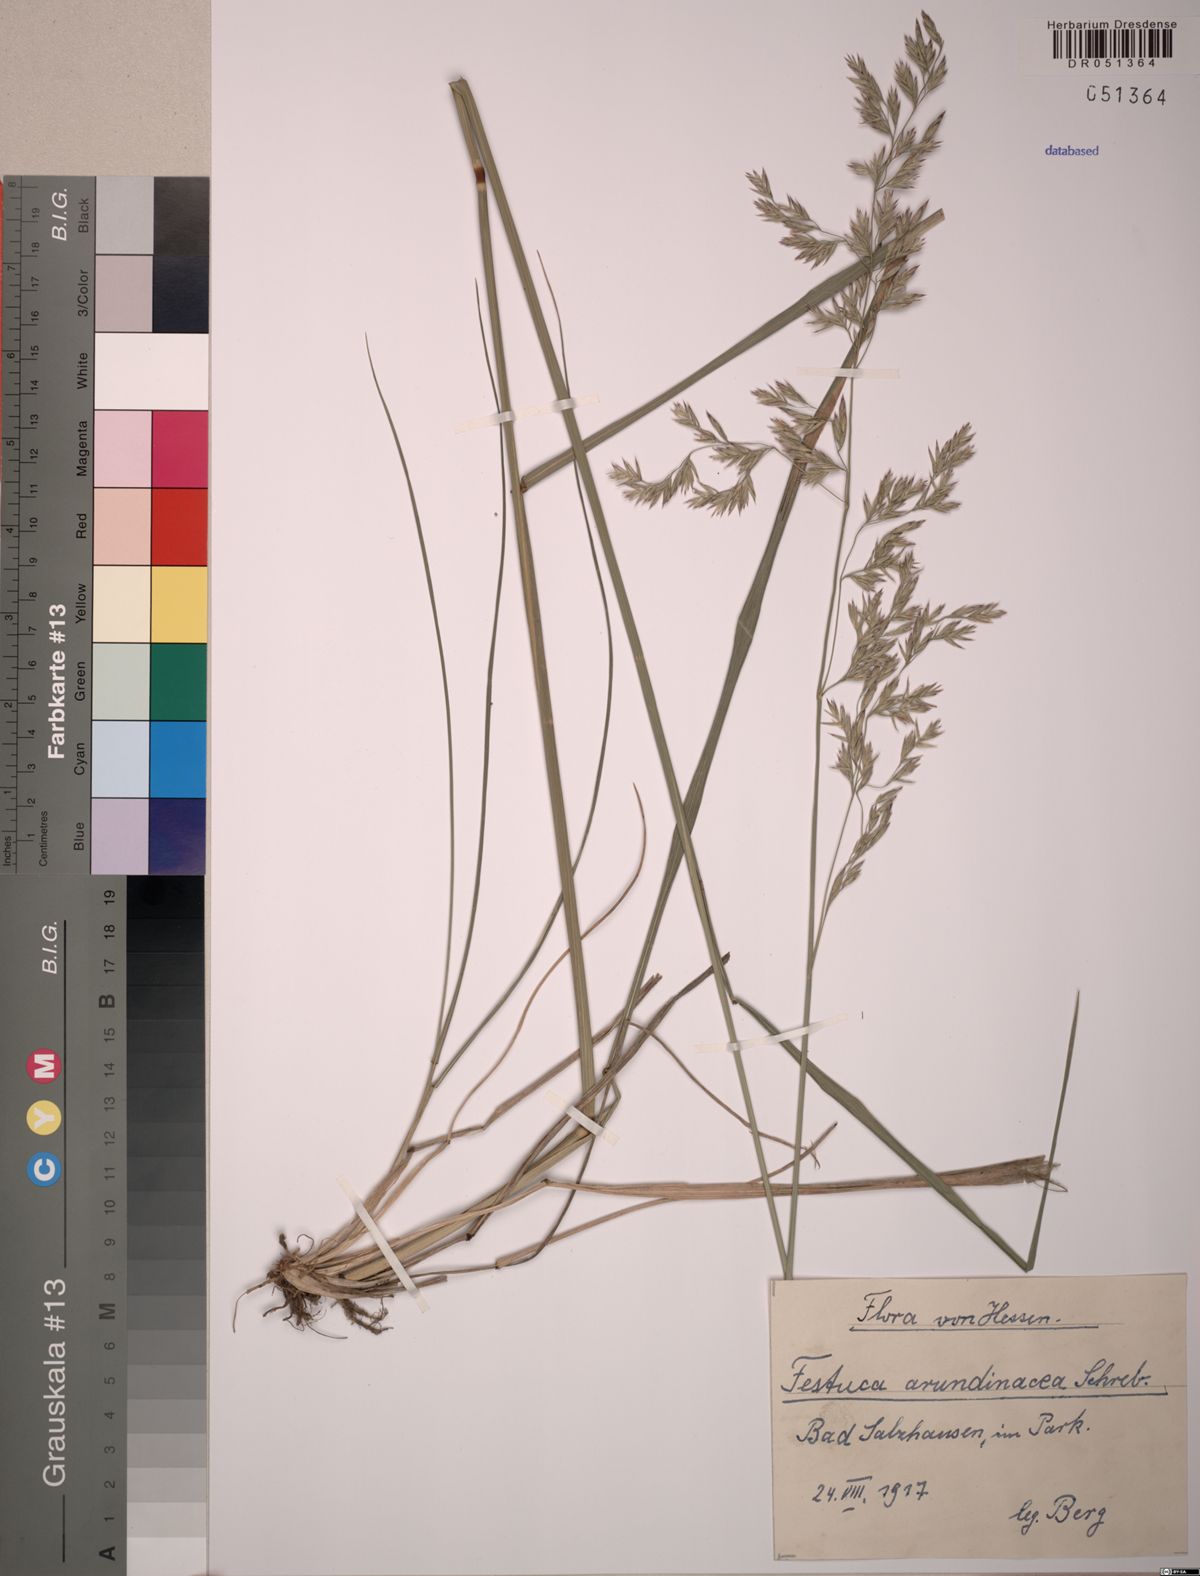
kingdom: Plantae
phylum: Tracheophyta
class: Liliopsida
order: Poales
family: Poaceae
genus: Lolium
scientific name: Lolium arundinaceum
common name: Reed fescue
